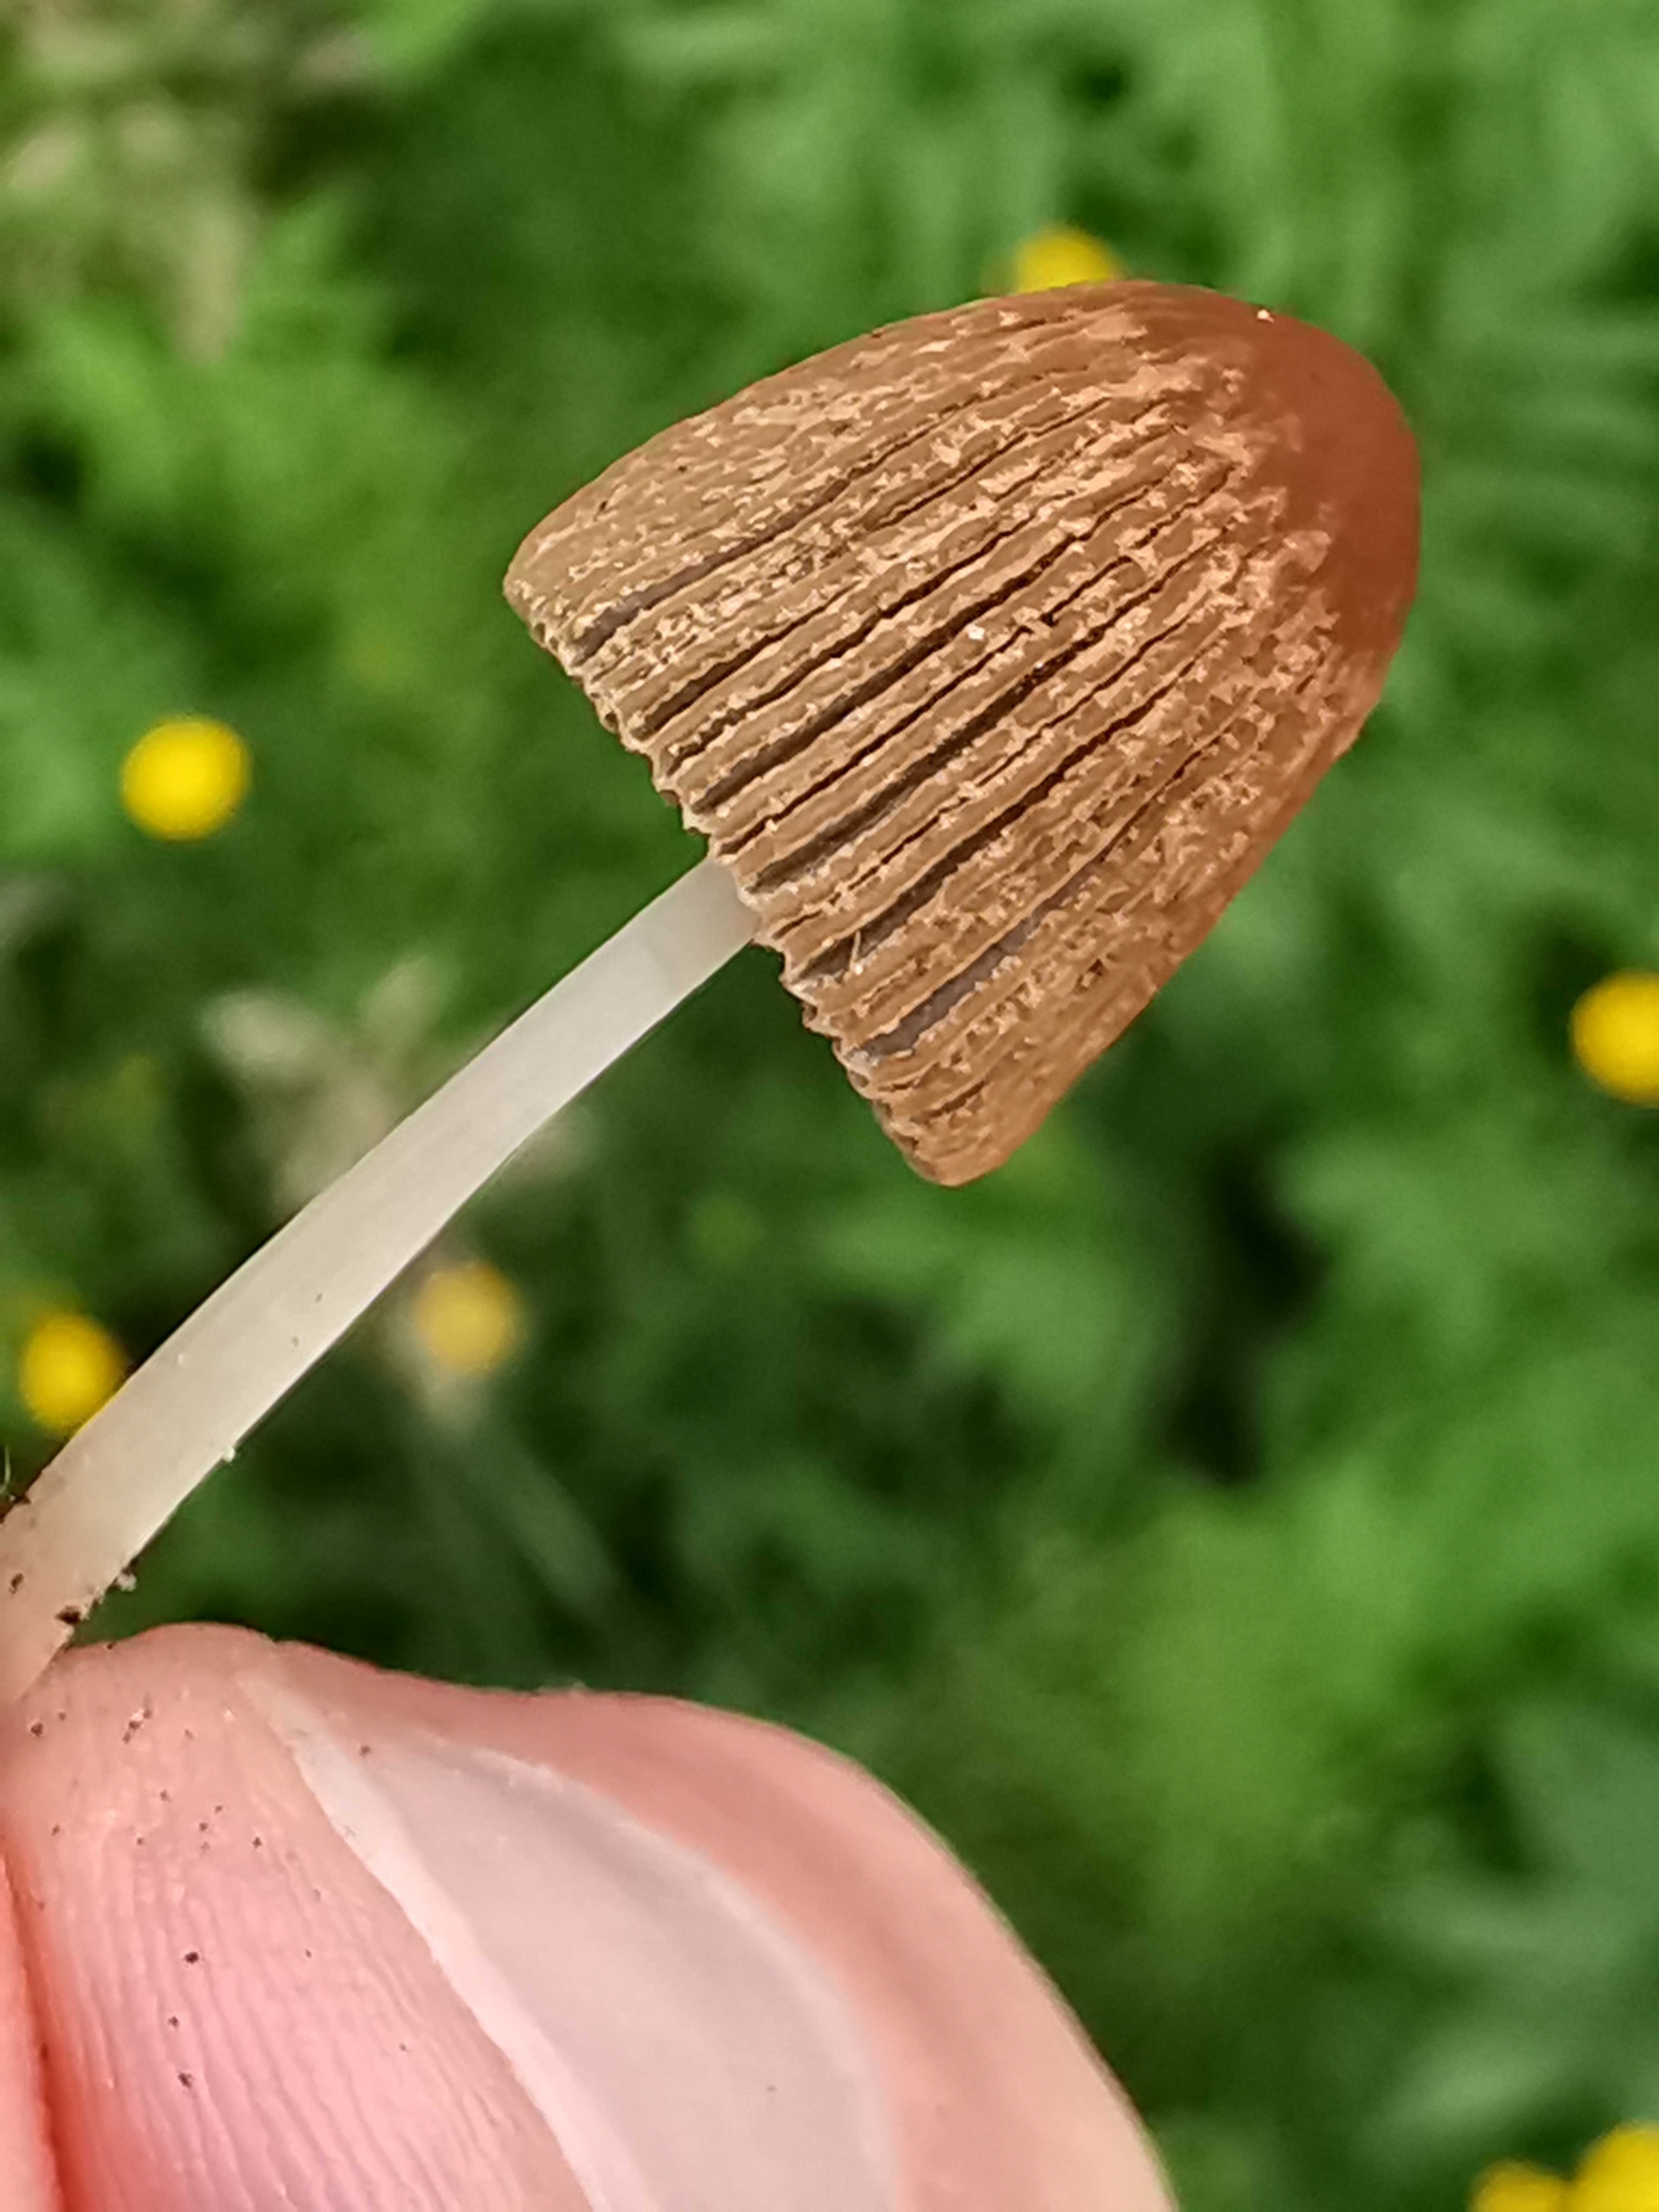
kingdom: Fungi
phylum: Basidiomycota
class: Agaricomycetes
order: Agaricales
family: Psathyrellaceae
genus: Parasola
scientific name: Parasola
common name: hjulhat
